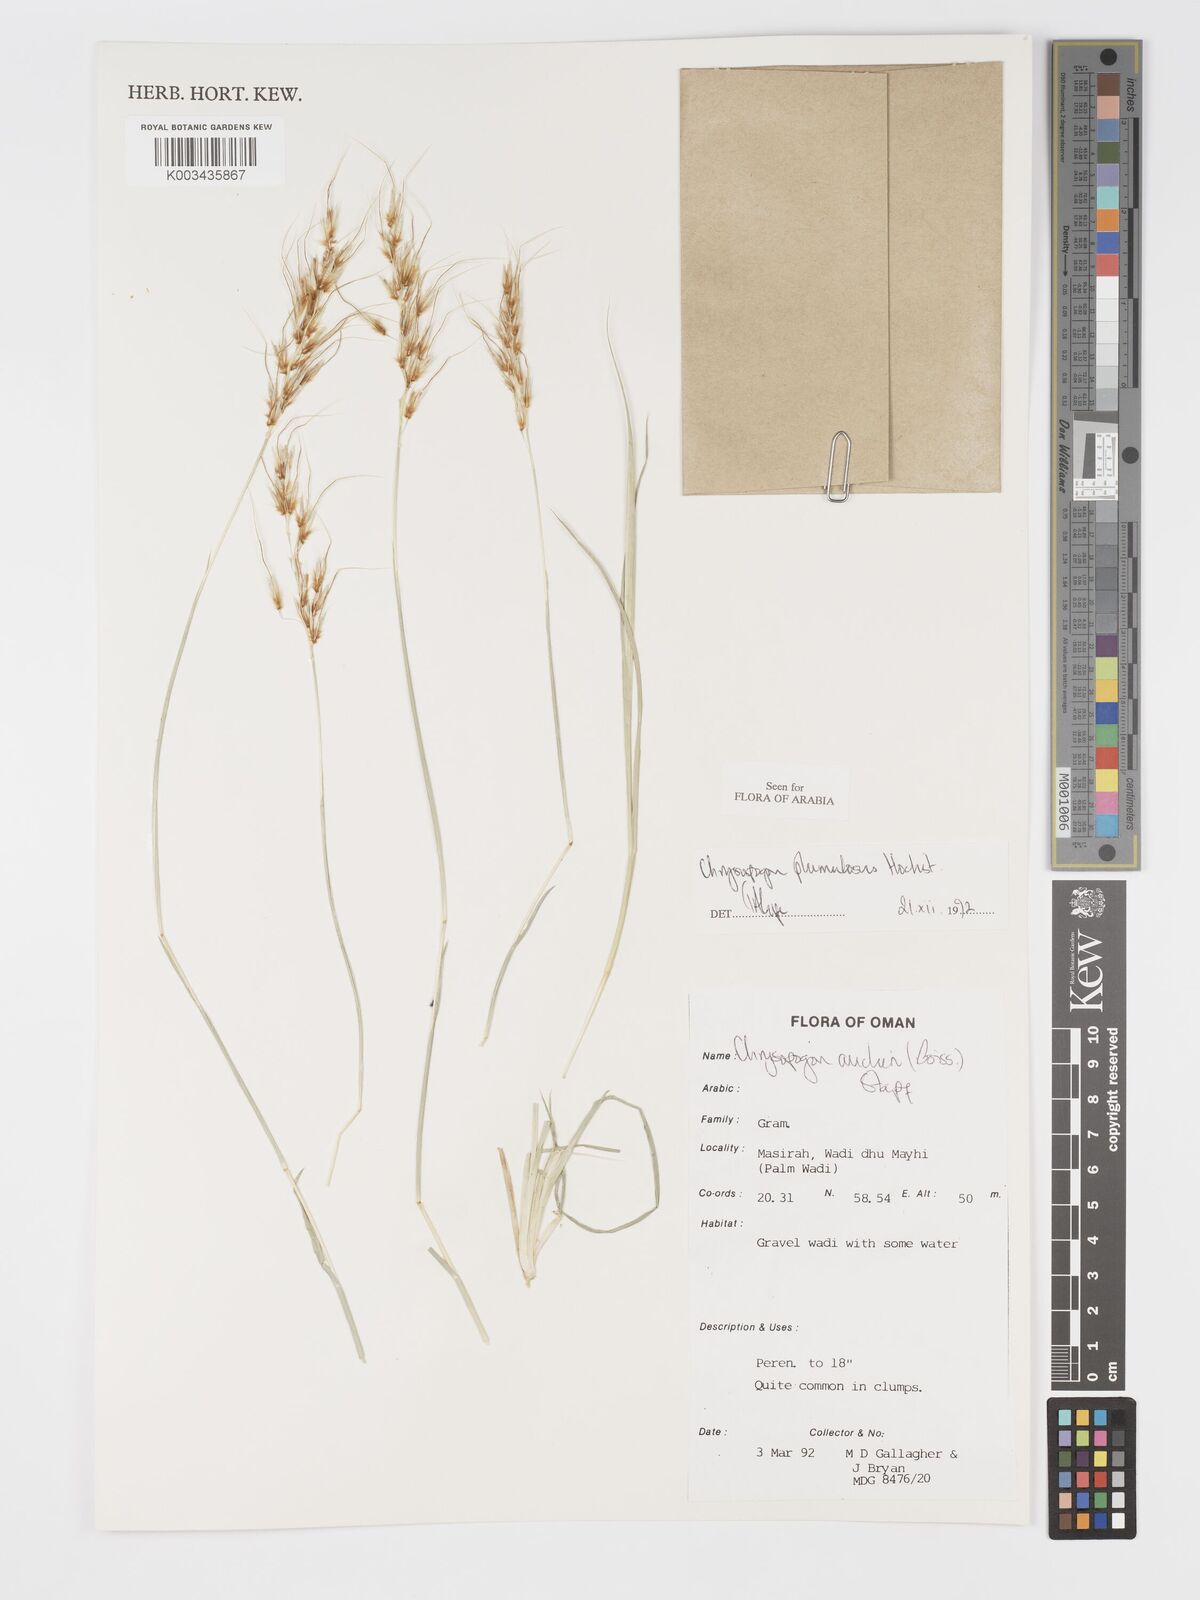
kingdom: Plantae
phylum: Tracheophyta
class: Liliopsida
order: Poales
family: Poaceae
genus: Chrysopogon
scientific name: Chrysopogon plumulosus
